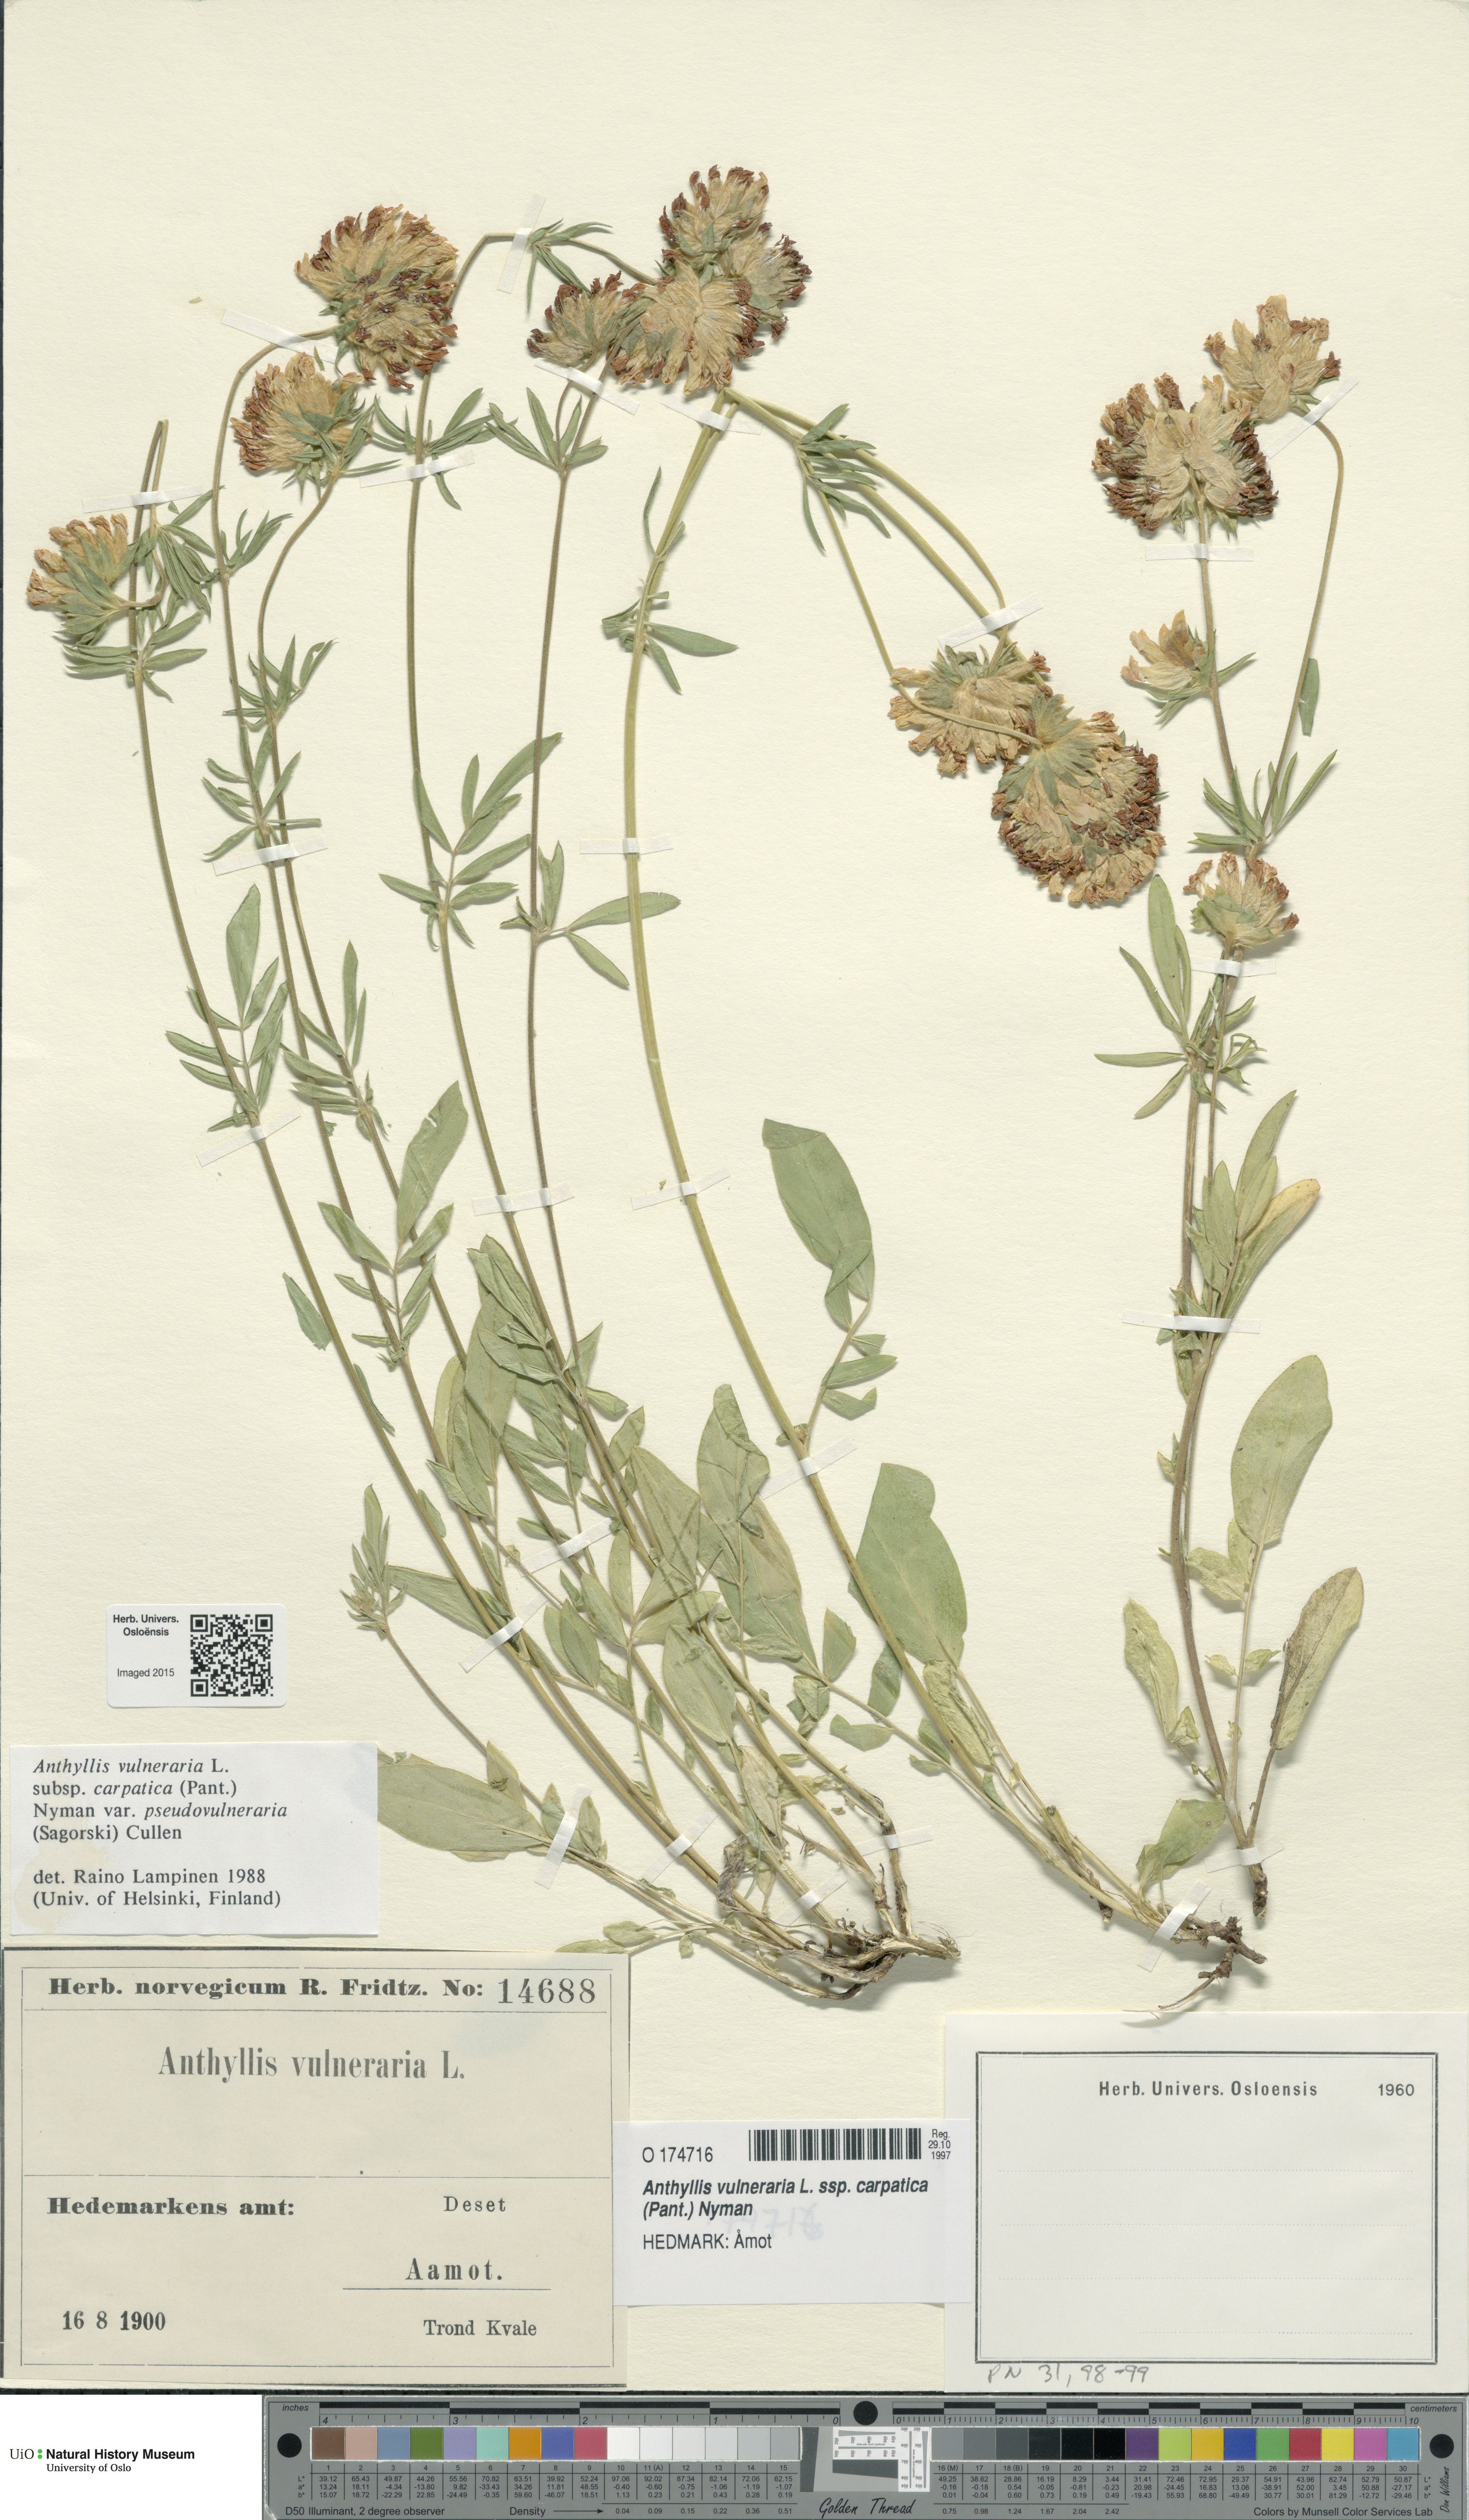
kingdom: Plantae
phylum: Tracheophyta
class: Magnoliopsida
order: Fabales
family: Fabaceae
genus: Anthyllis
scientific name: Anthyllis vulneraria
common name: Kidney vetch
